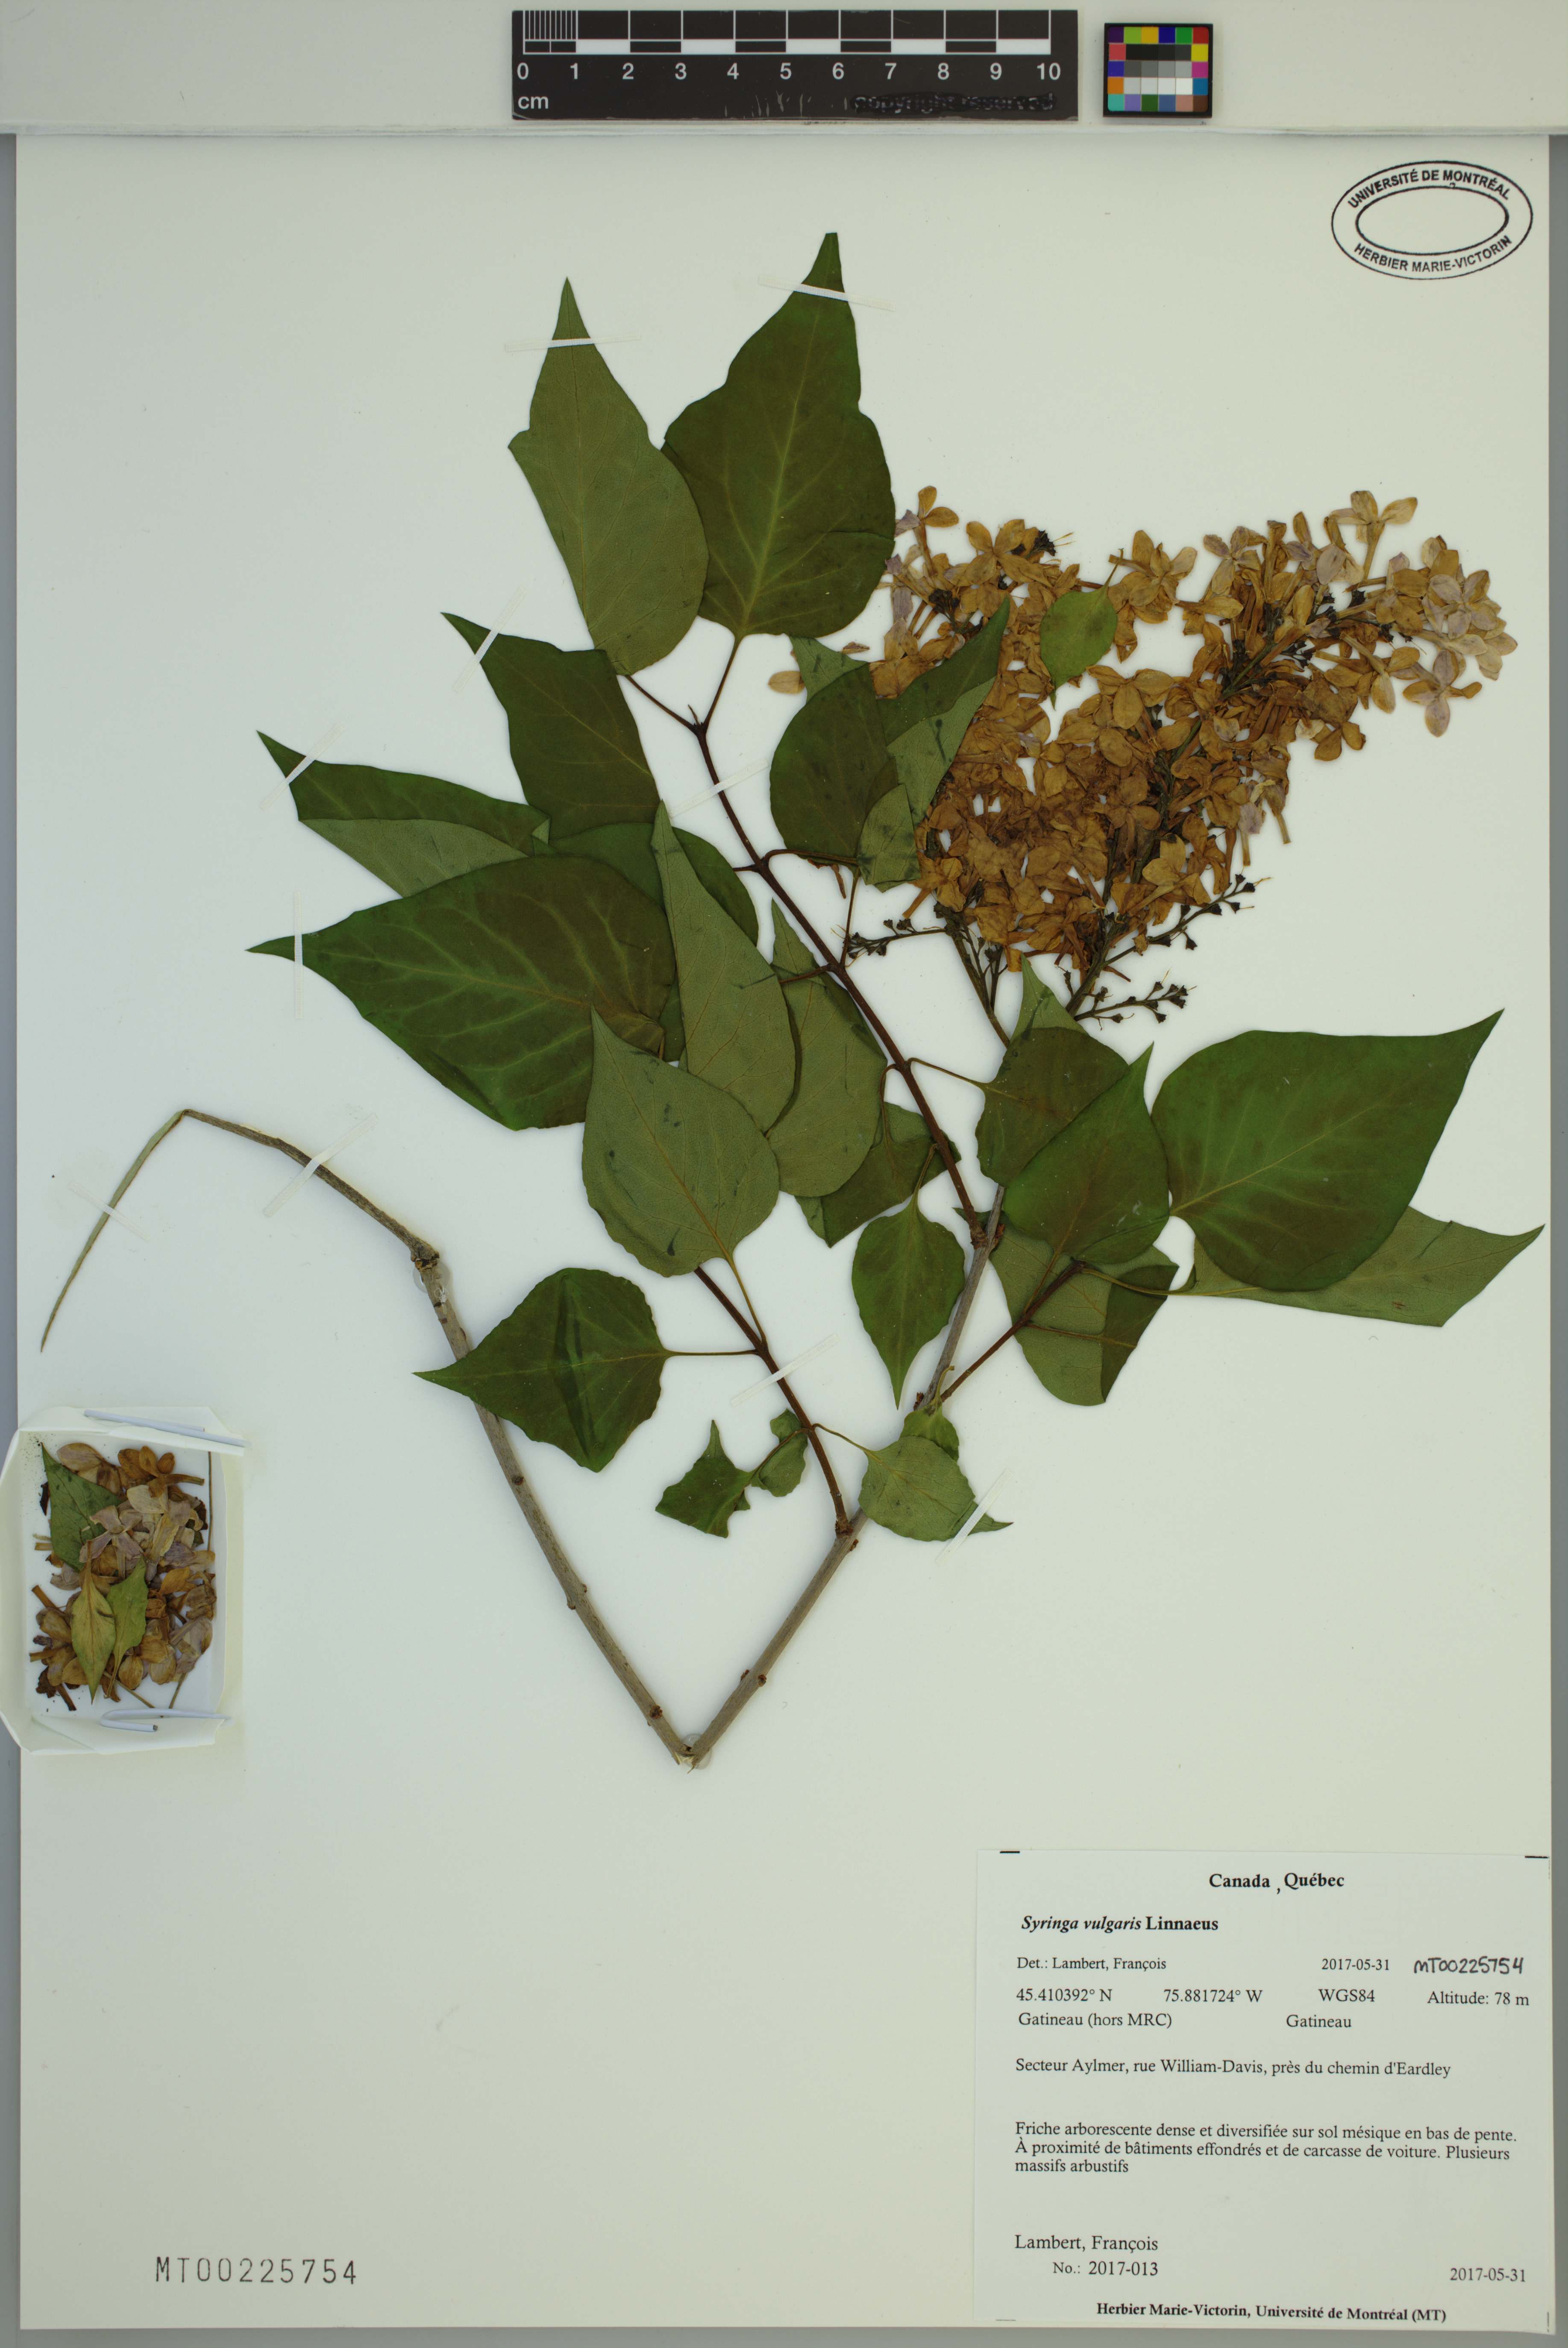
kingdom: Plantae
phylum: Tracheophyta
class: Magnoliopsida
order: Lamiales
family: Oleaceae
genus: Syringa
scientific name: Syringa vulgaris
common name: Common lilac
